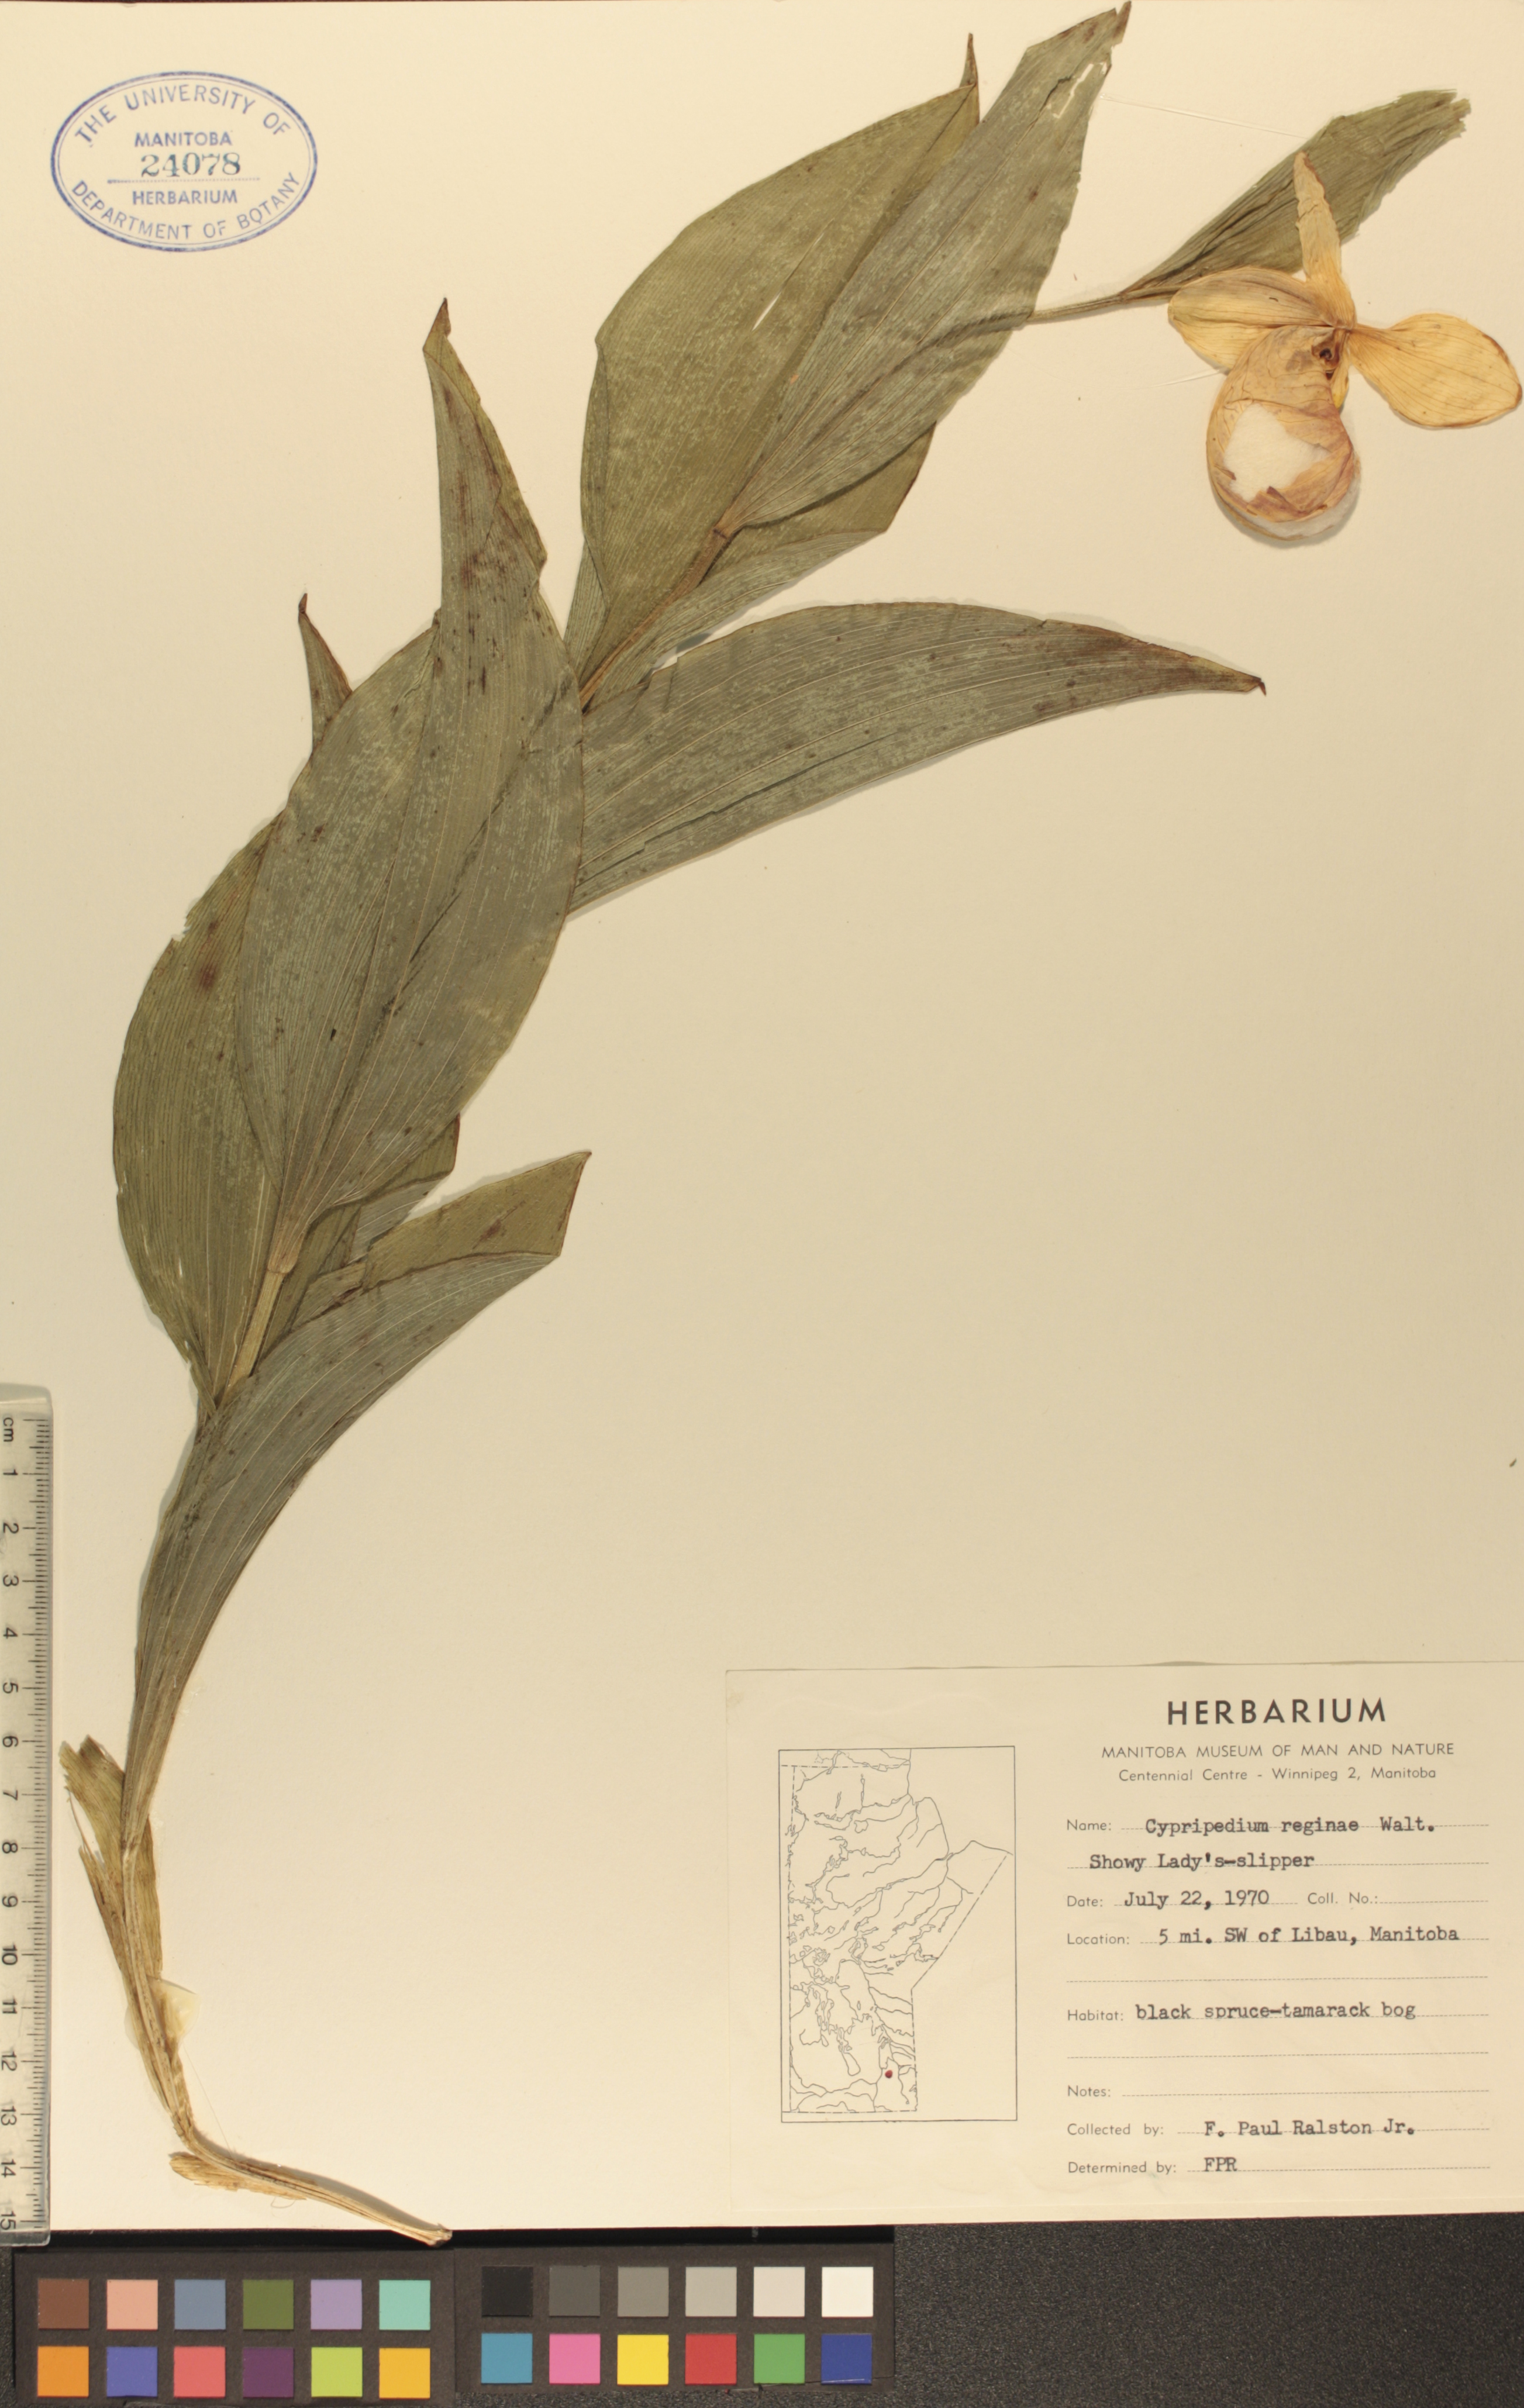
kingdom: Plantae
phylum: Tracheophyta
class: Liliopsida
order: Asparagales
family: Orchidaceae
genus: Cypripedium
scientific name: Cypripedium reginae
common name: Queen lady's-slipper
